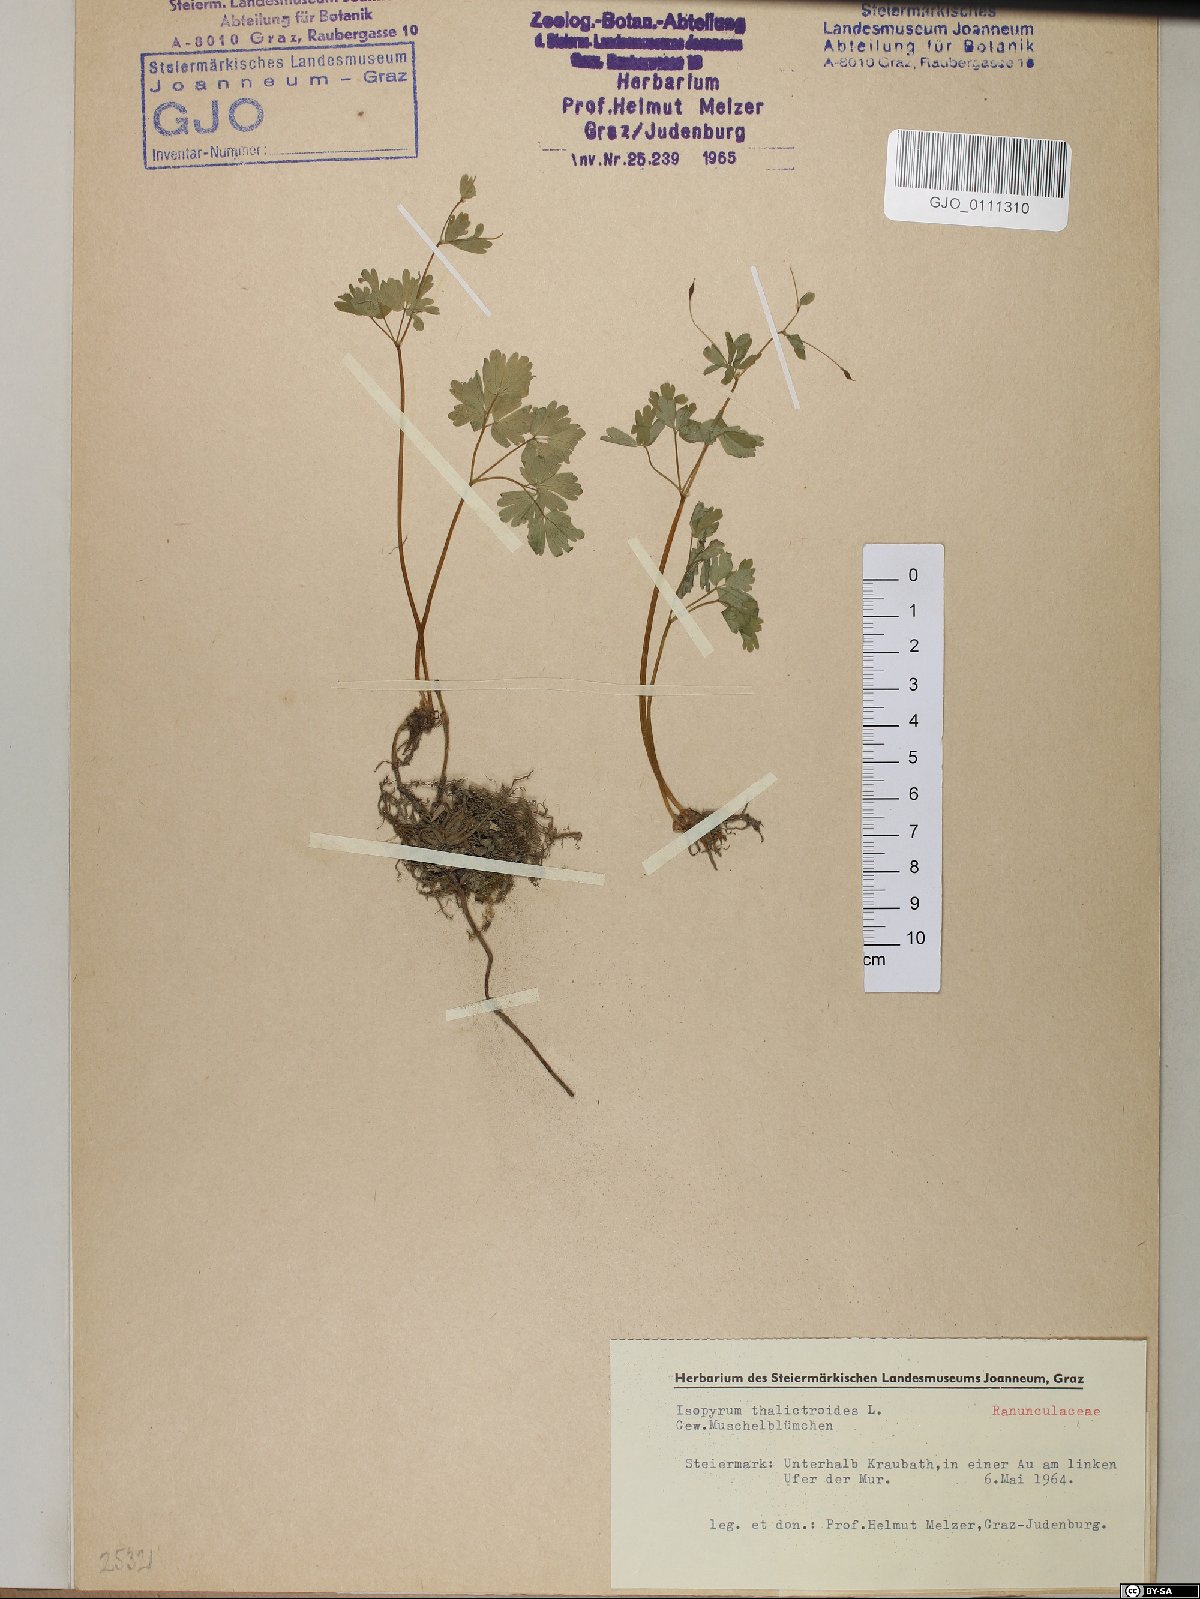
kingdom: Plantae
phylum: Tracheophyta
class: Magnoliopsida
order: Ranunculales
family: Ranunculaceae
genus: Isopyrum
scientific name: Isopyrum thalictroides
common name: Isopyrum
